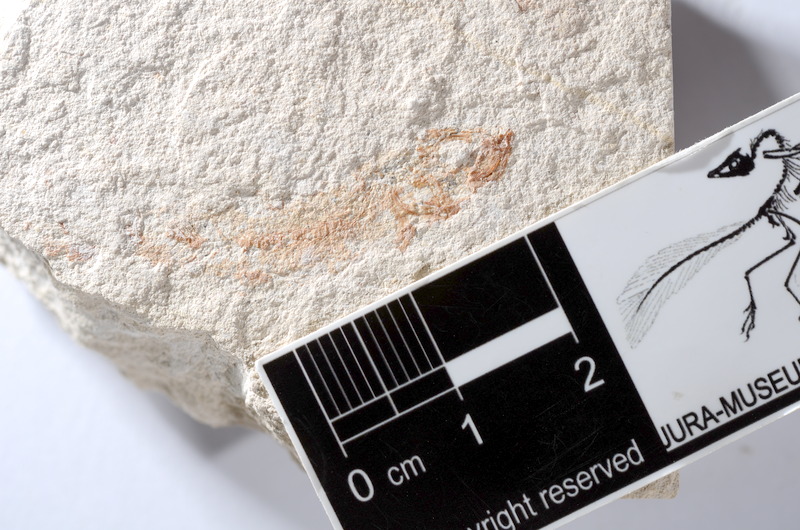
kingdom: Animalia
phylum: Chordata
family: Ascalaboidae
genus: Tharsis
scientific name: Tharsis dubius
